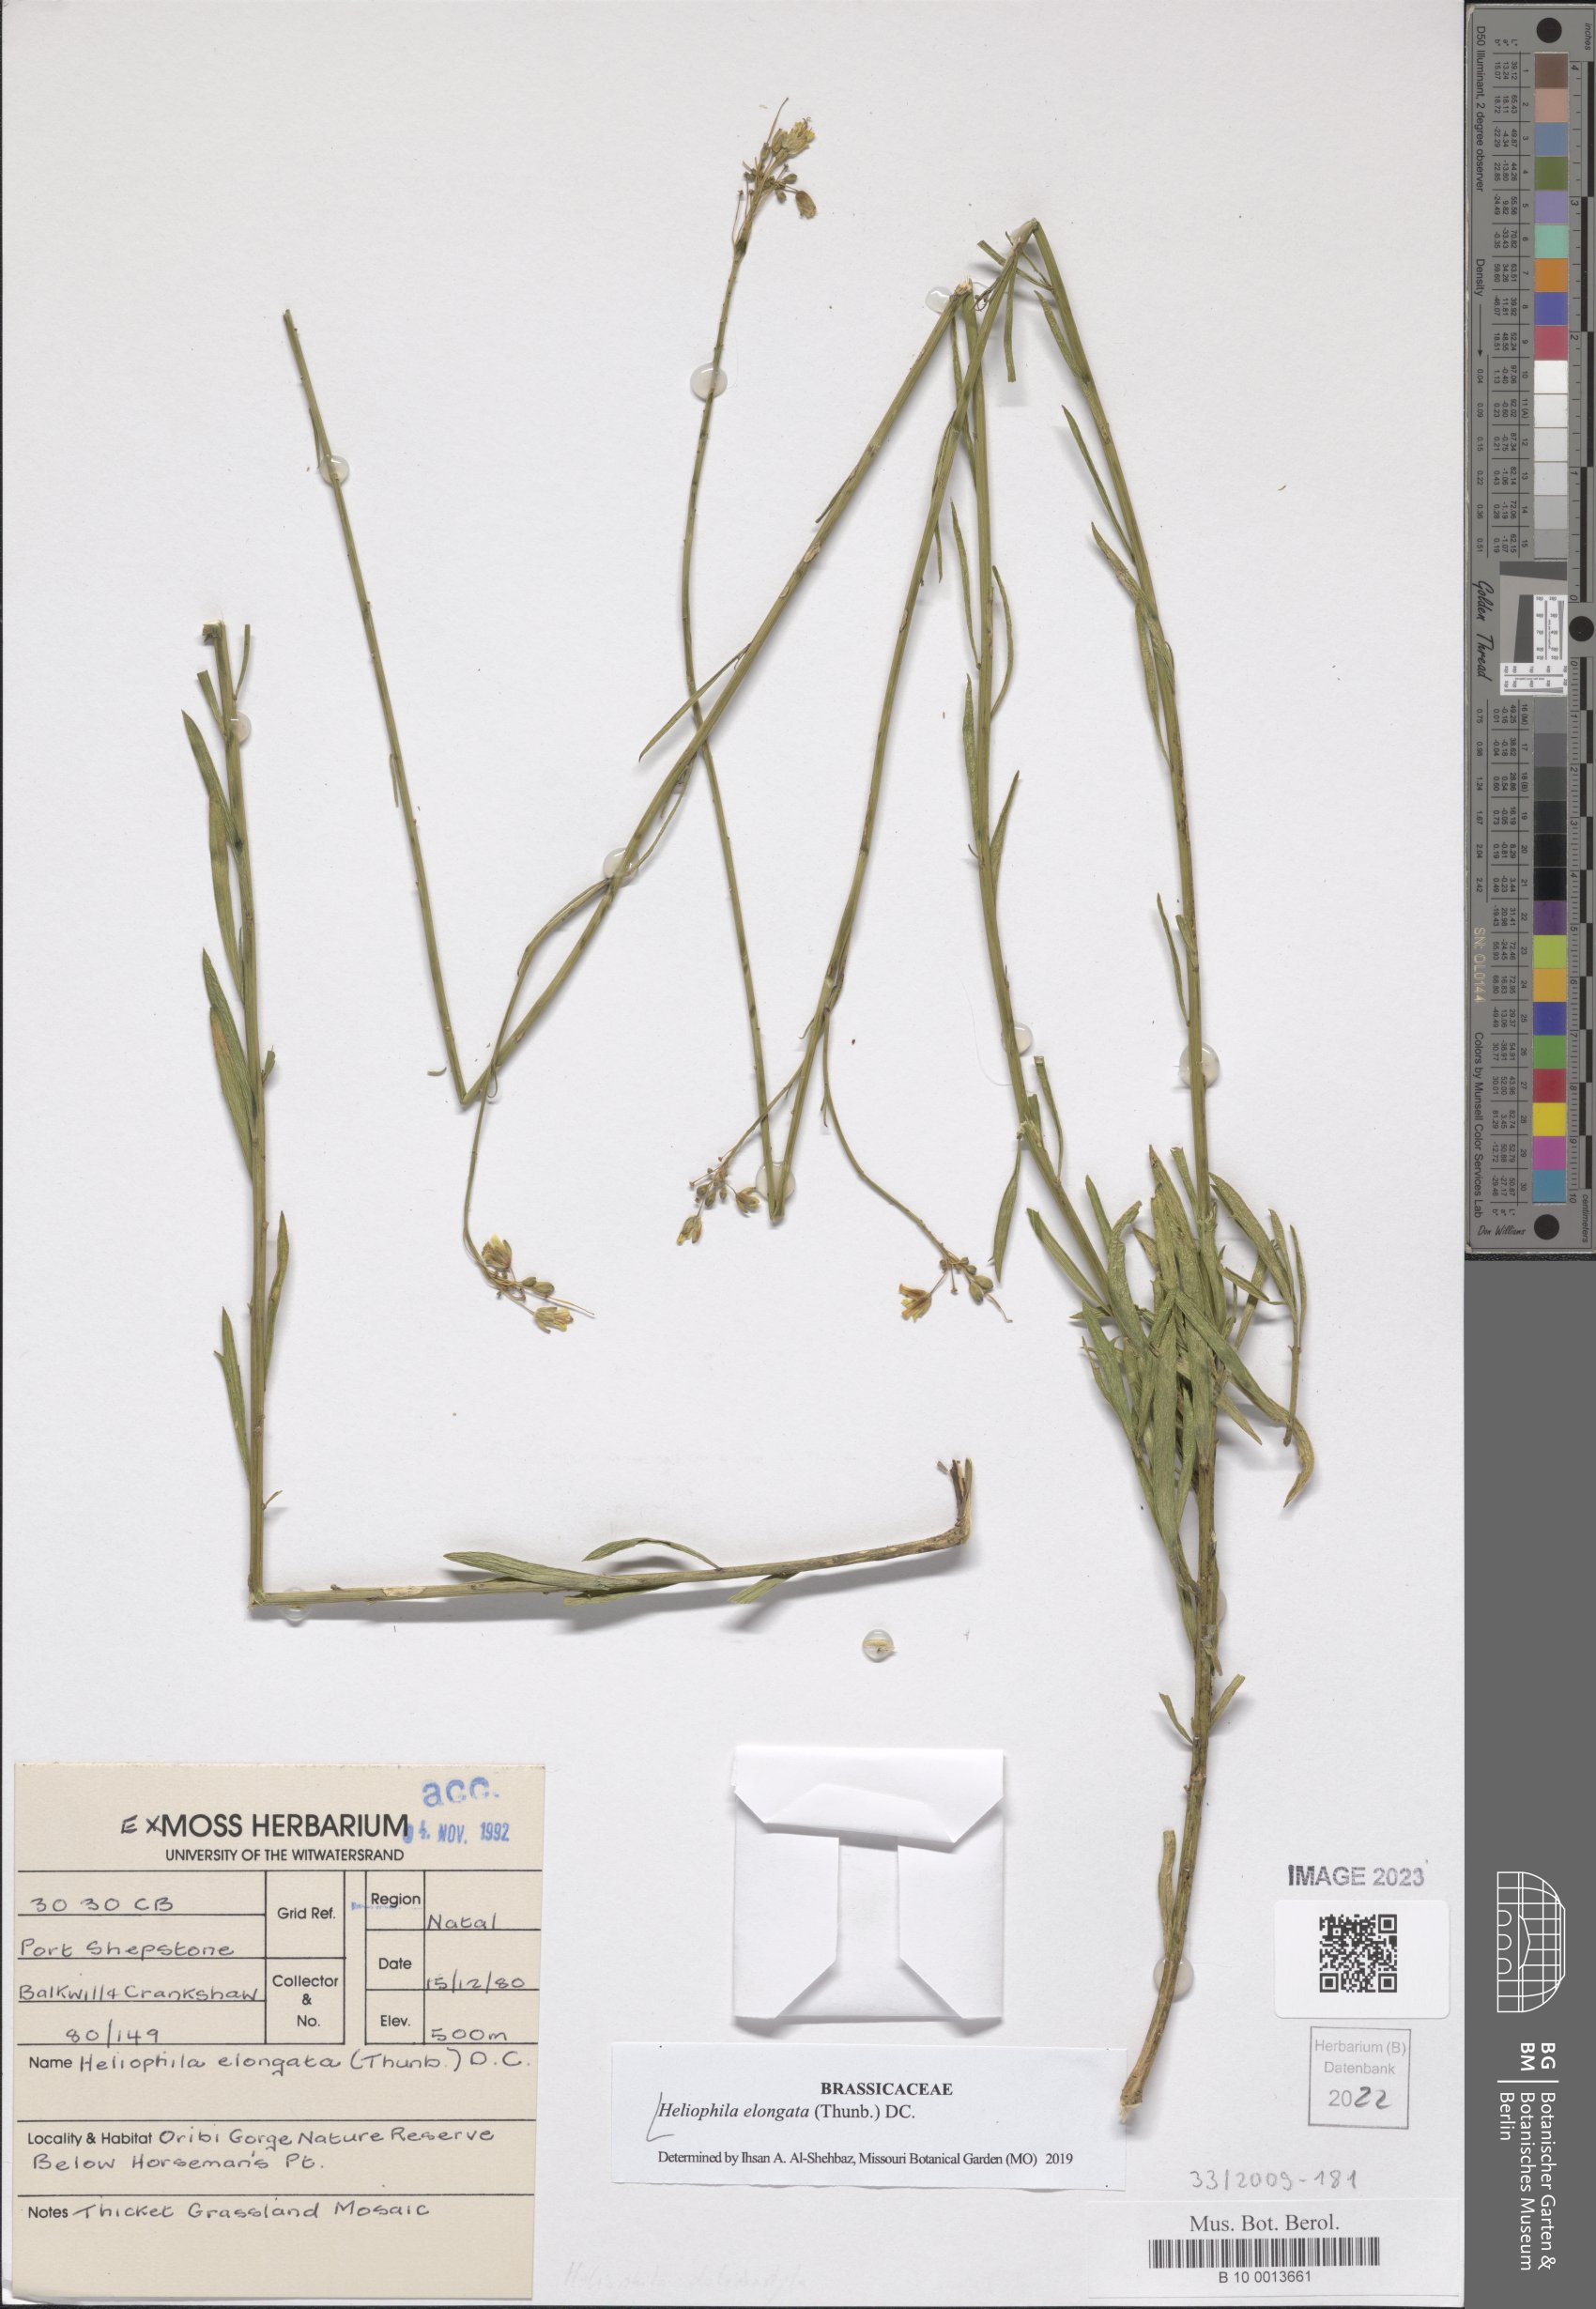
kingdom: Plantae
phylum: Tracheophyta
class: Magnoliopsida
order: Brassicales
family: Brassicaceae
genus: Heliophila
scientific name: Heliophila elongata
